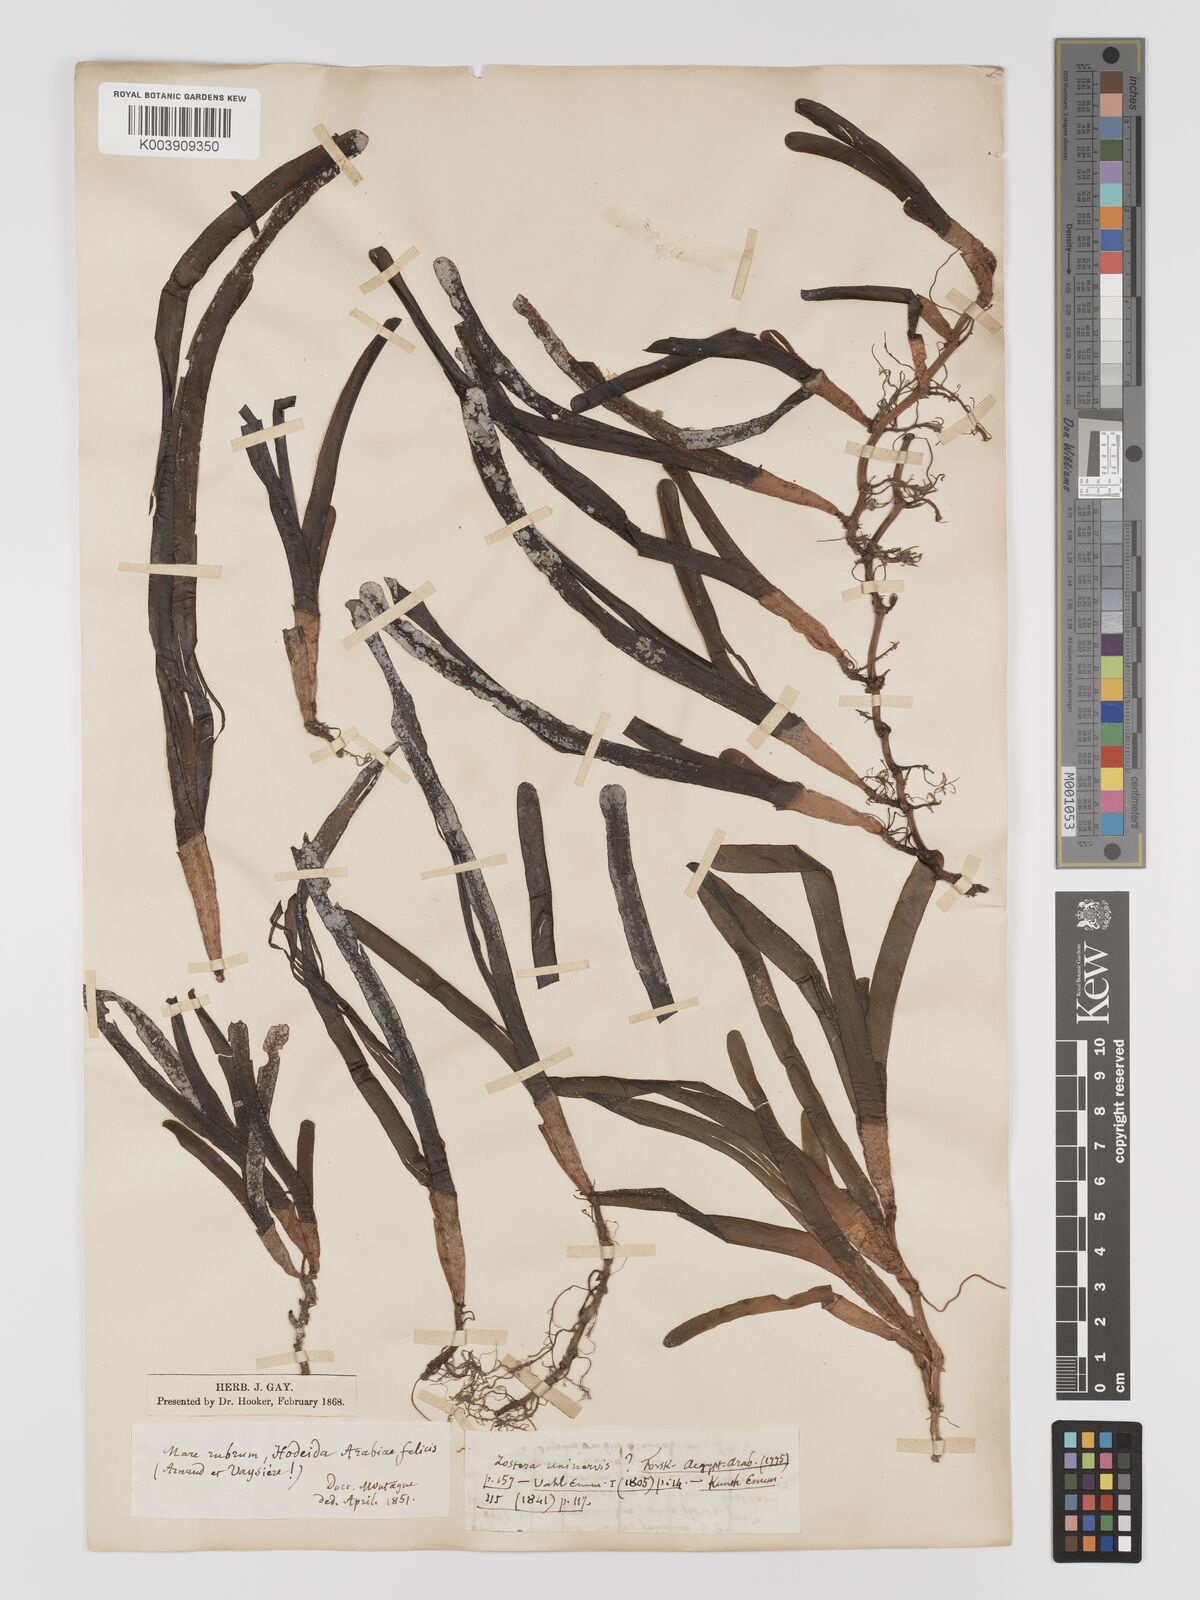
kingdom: Plantae
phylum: Tracheophyta
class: Liliopsida
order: Alismatales
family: Cymodoceaceae
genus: Oceana
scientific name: Oceana serrulata
